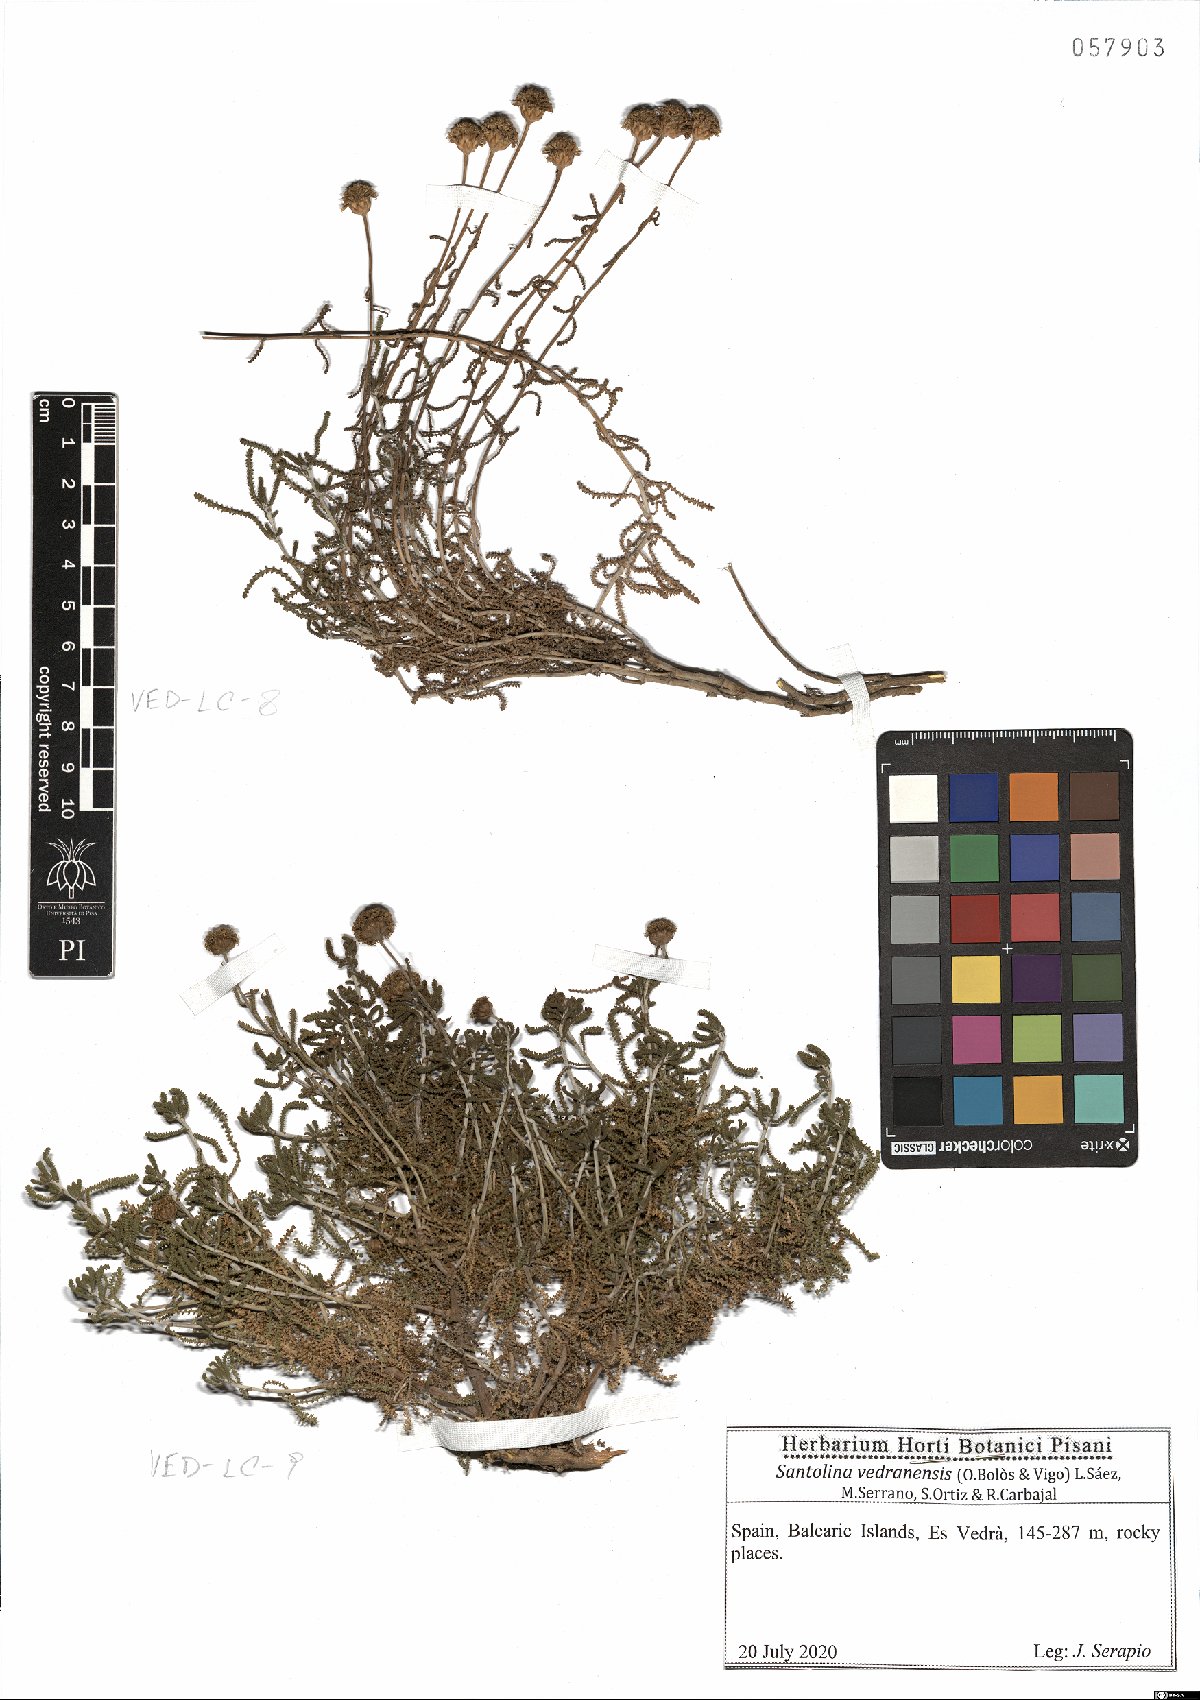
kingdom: Plantae
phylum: Tracheophyta
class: Magnoliopsida
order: Asterales
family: Asteraceae
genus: Santolina
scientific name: Santolina vedranensis
